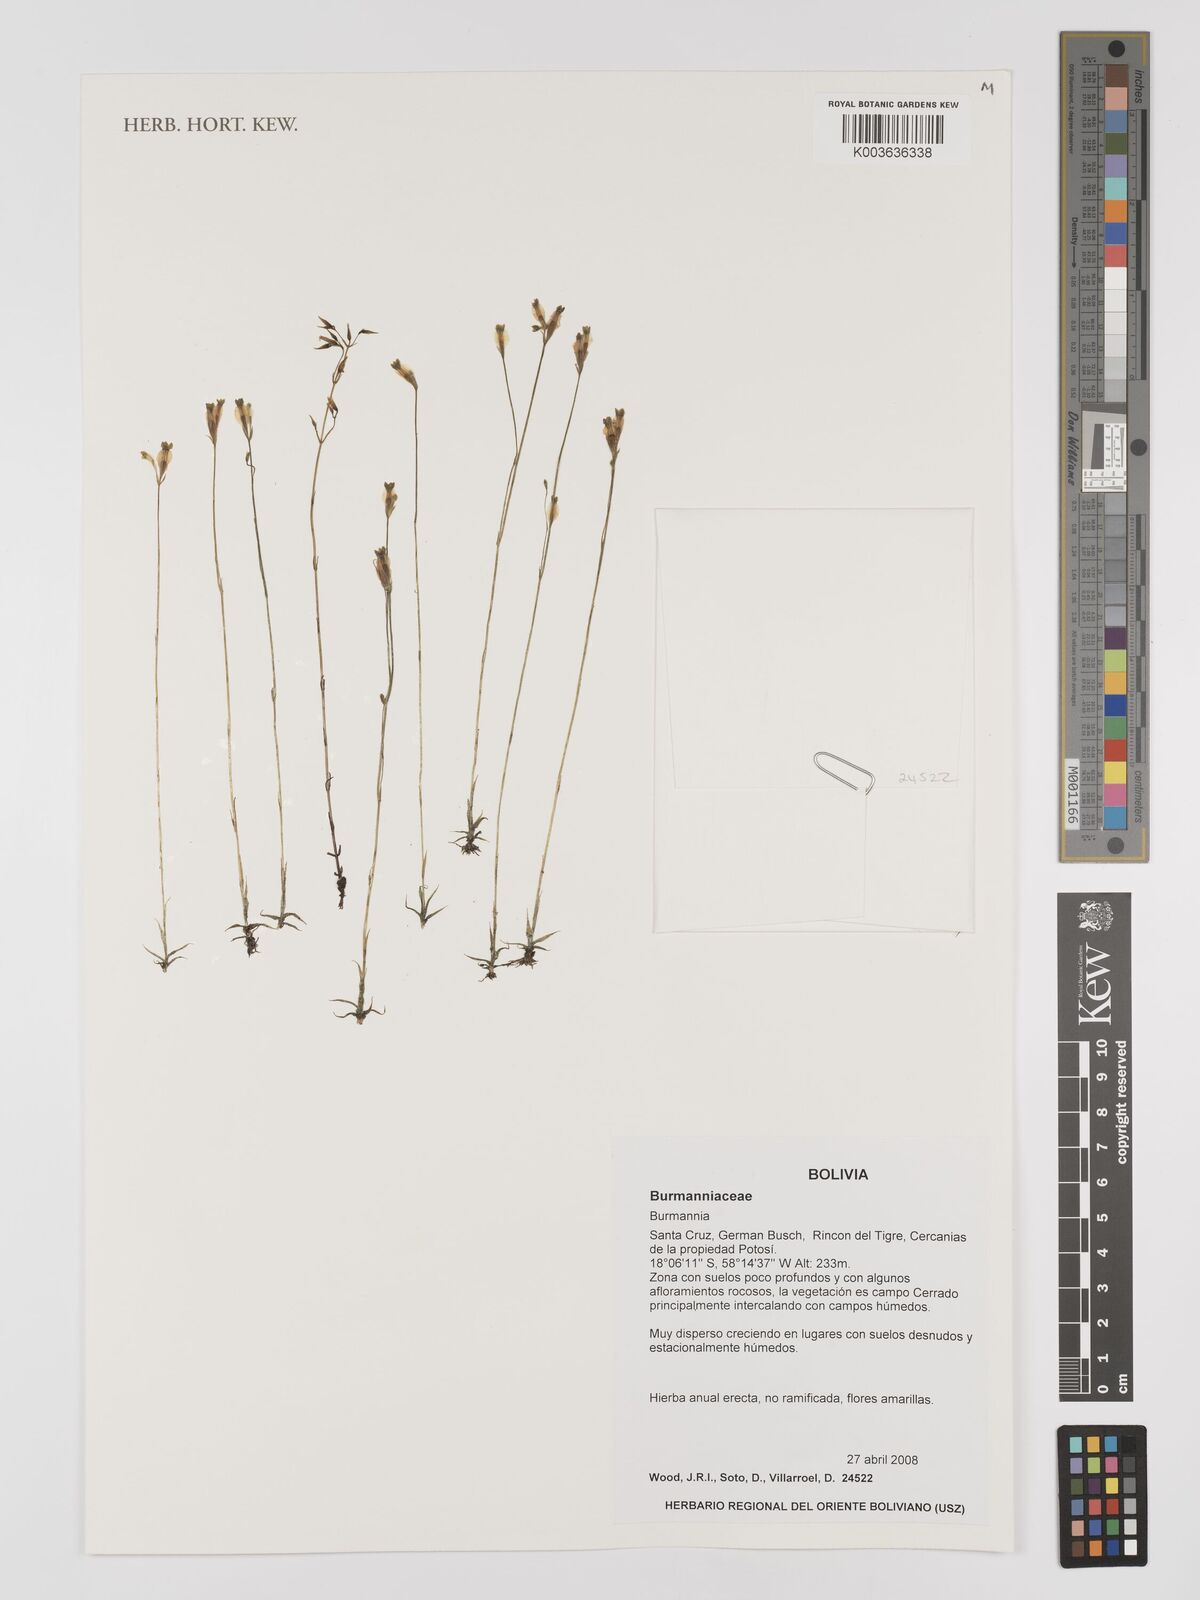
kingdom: Plantae
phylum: Tracheophyta
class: Liliopsida
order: Dioscoreales
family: Burmanniaceae
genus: Burmannia
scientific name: Burmannia alba
